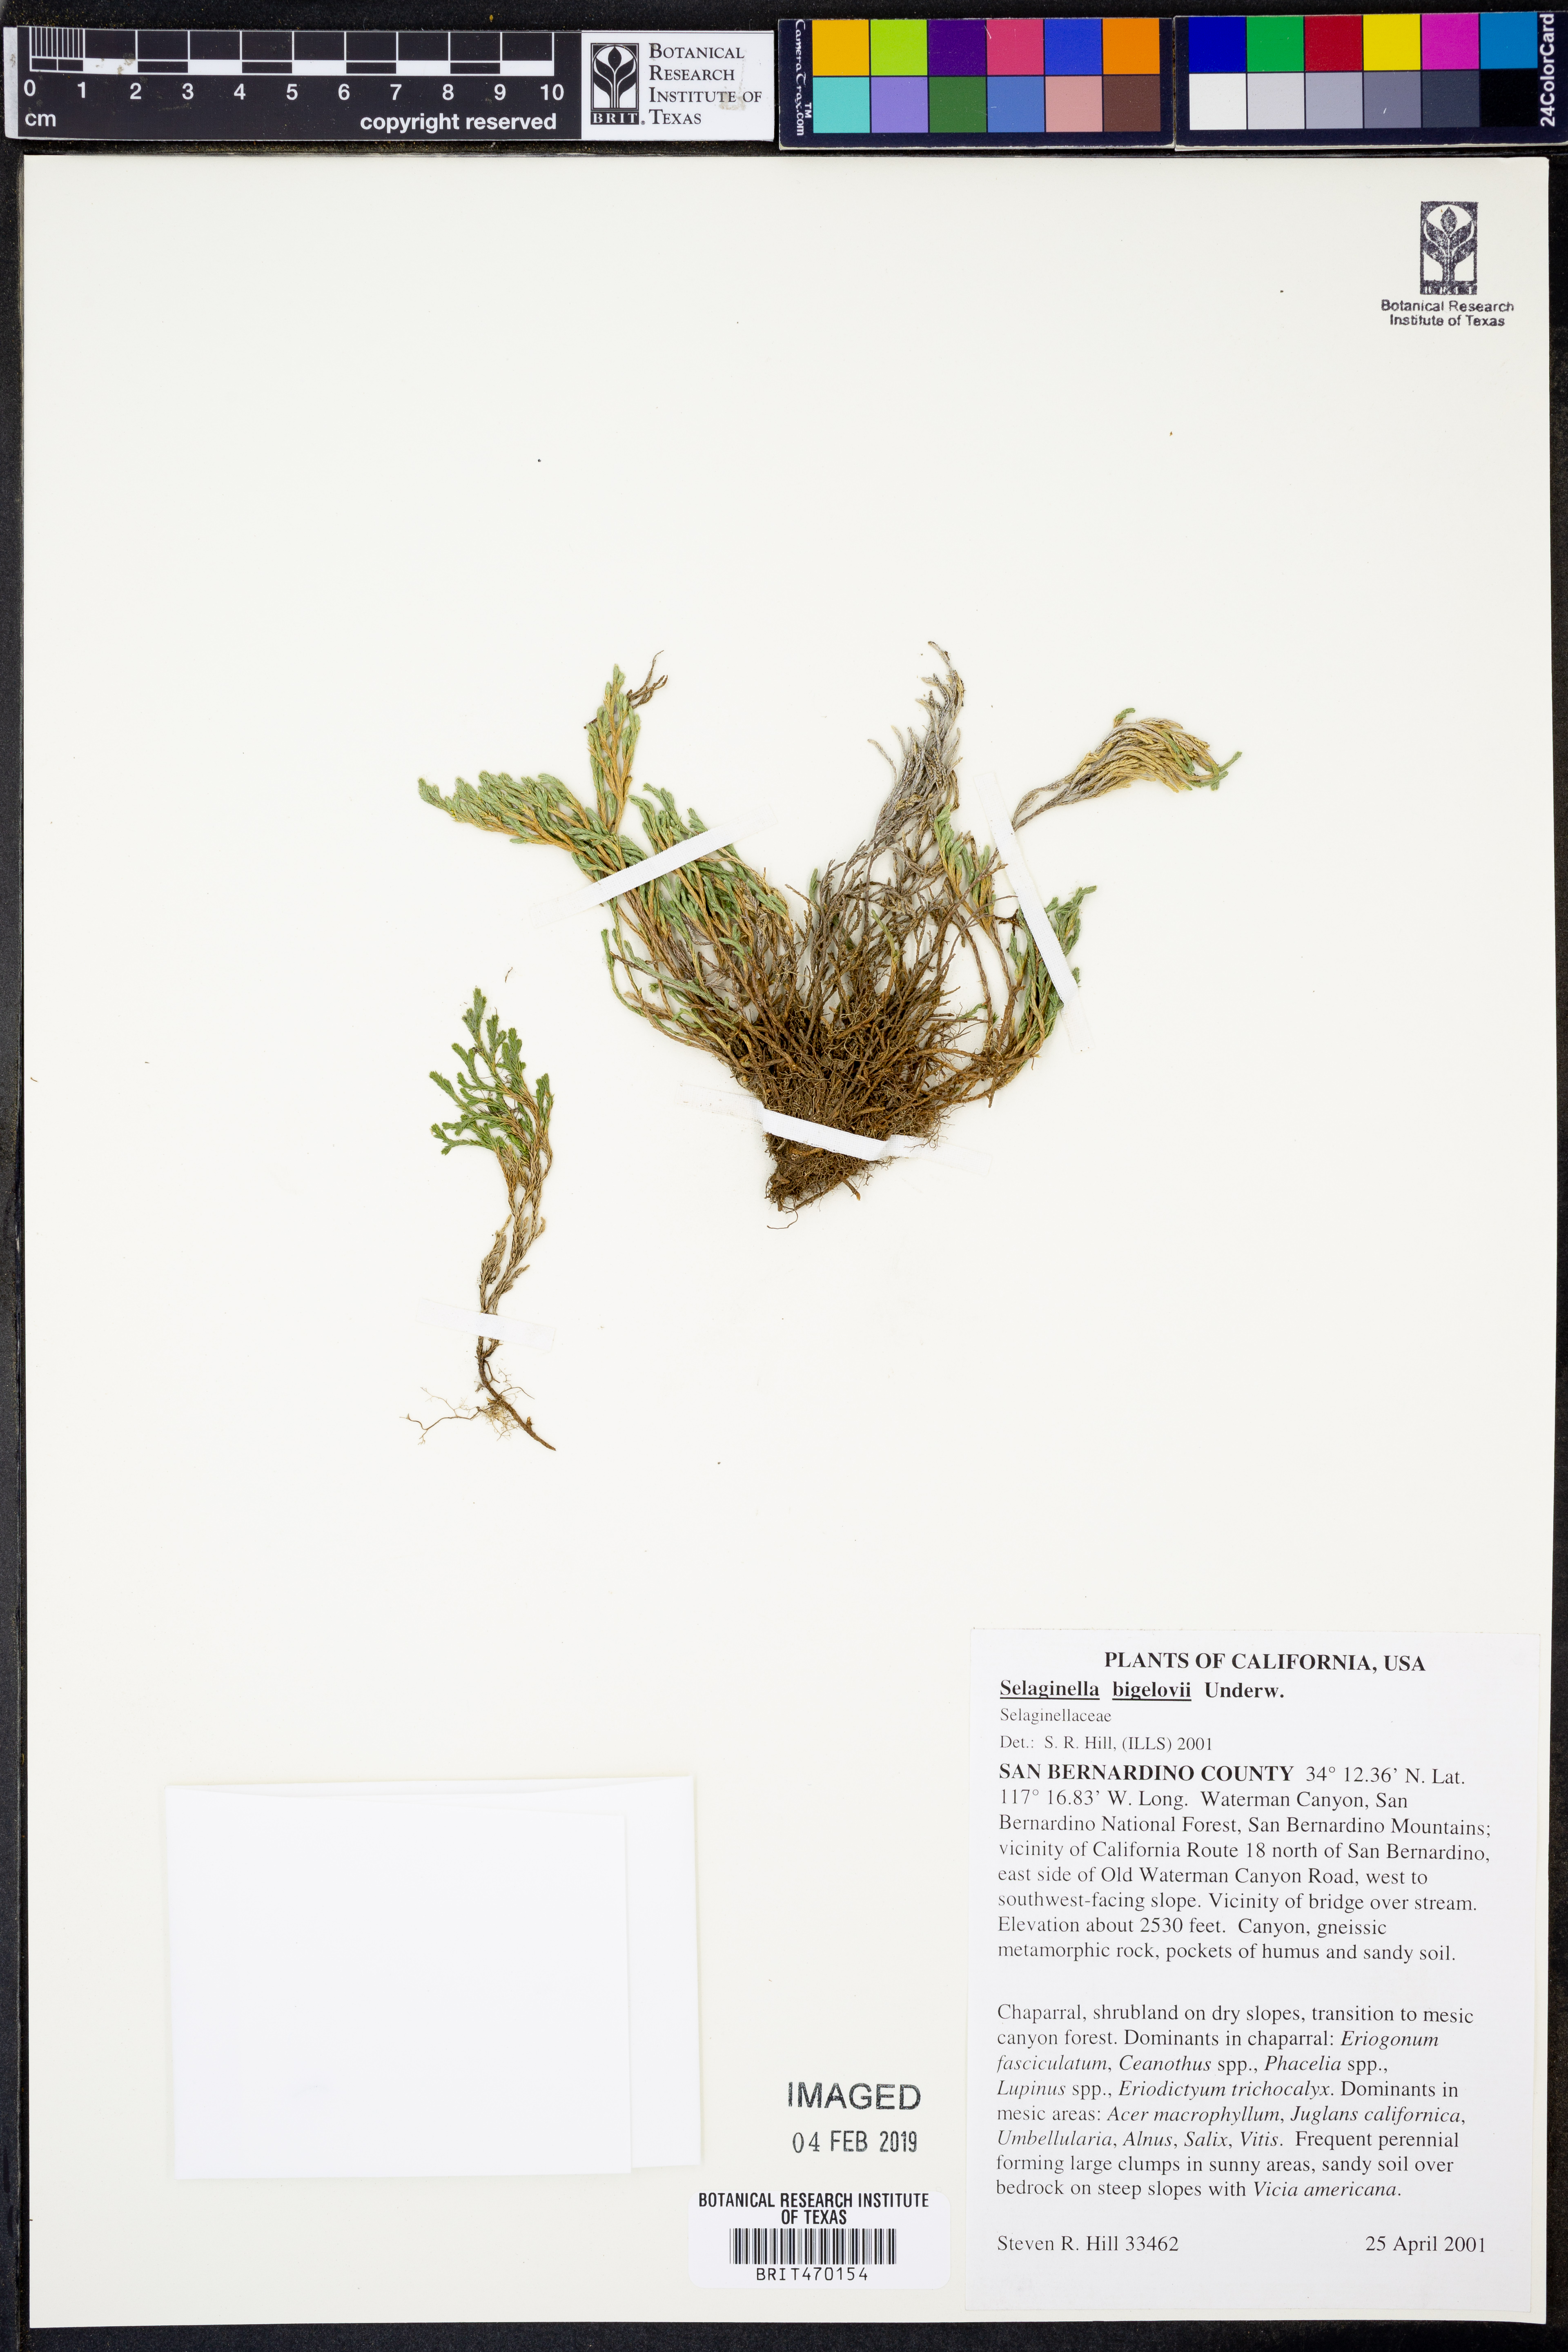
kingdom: Plantae
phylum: Tracheophyta
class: Lycopodiopsida
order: Selaginellales
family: Selaginellaceae
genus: Selaginella
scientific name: Selaginella bigelovii
